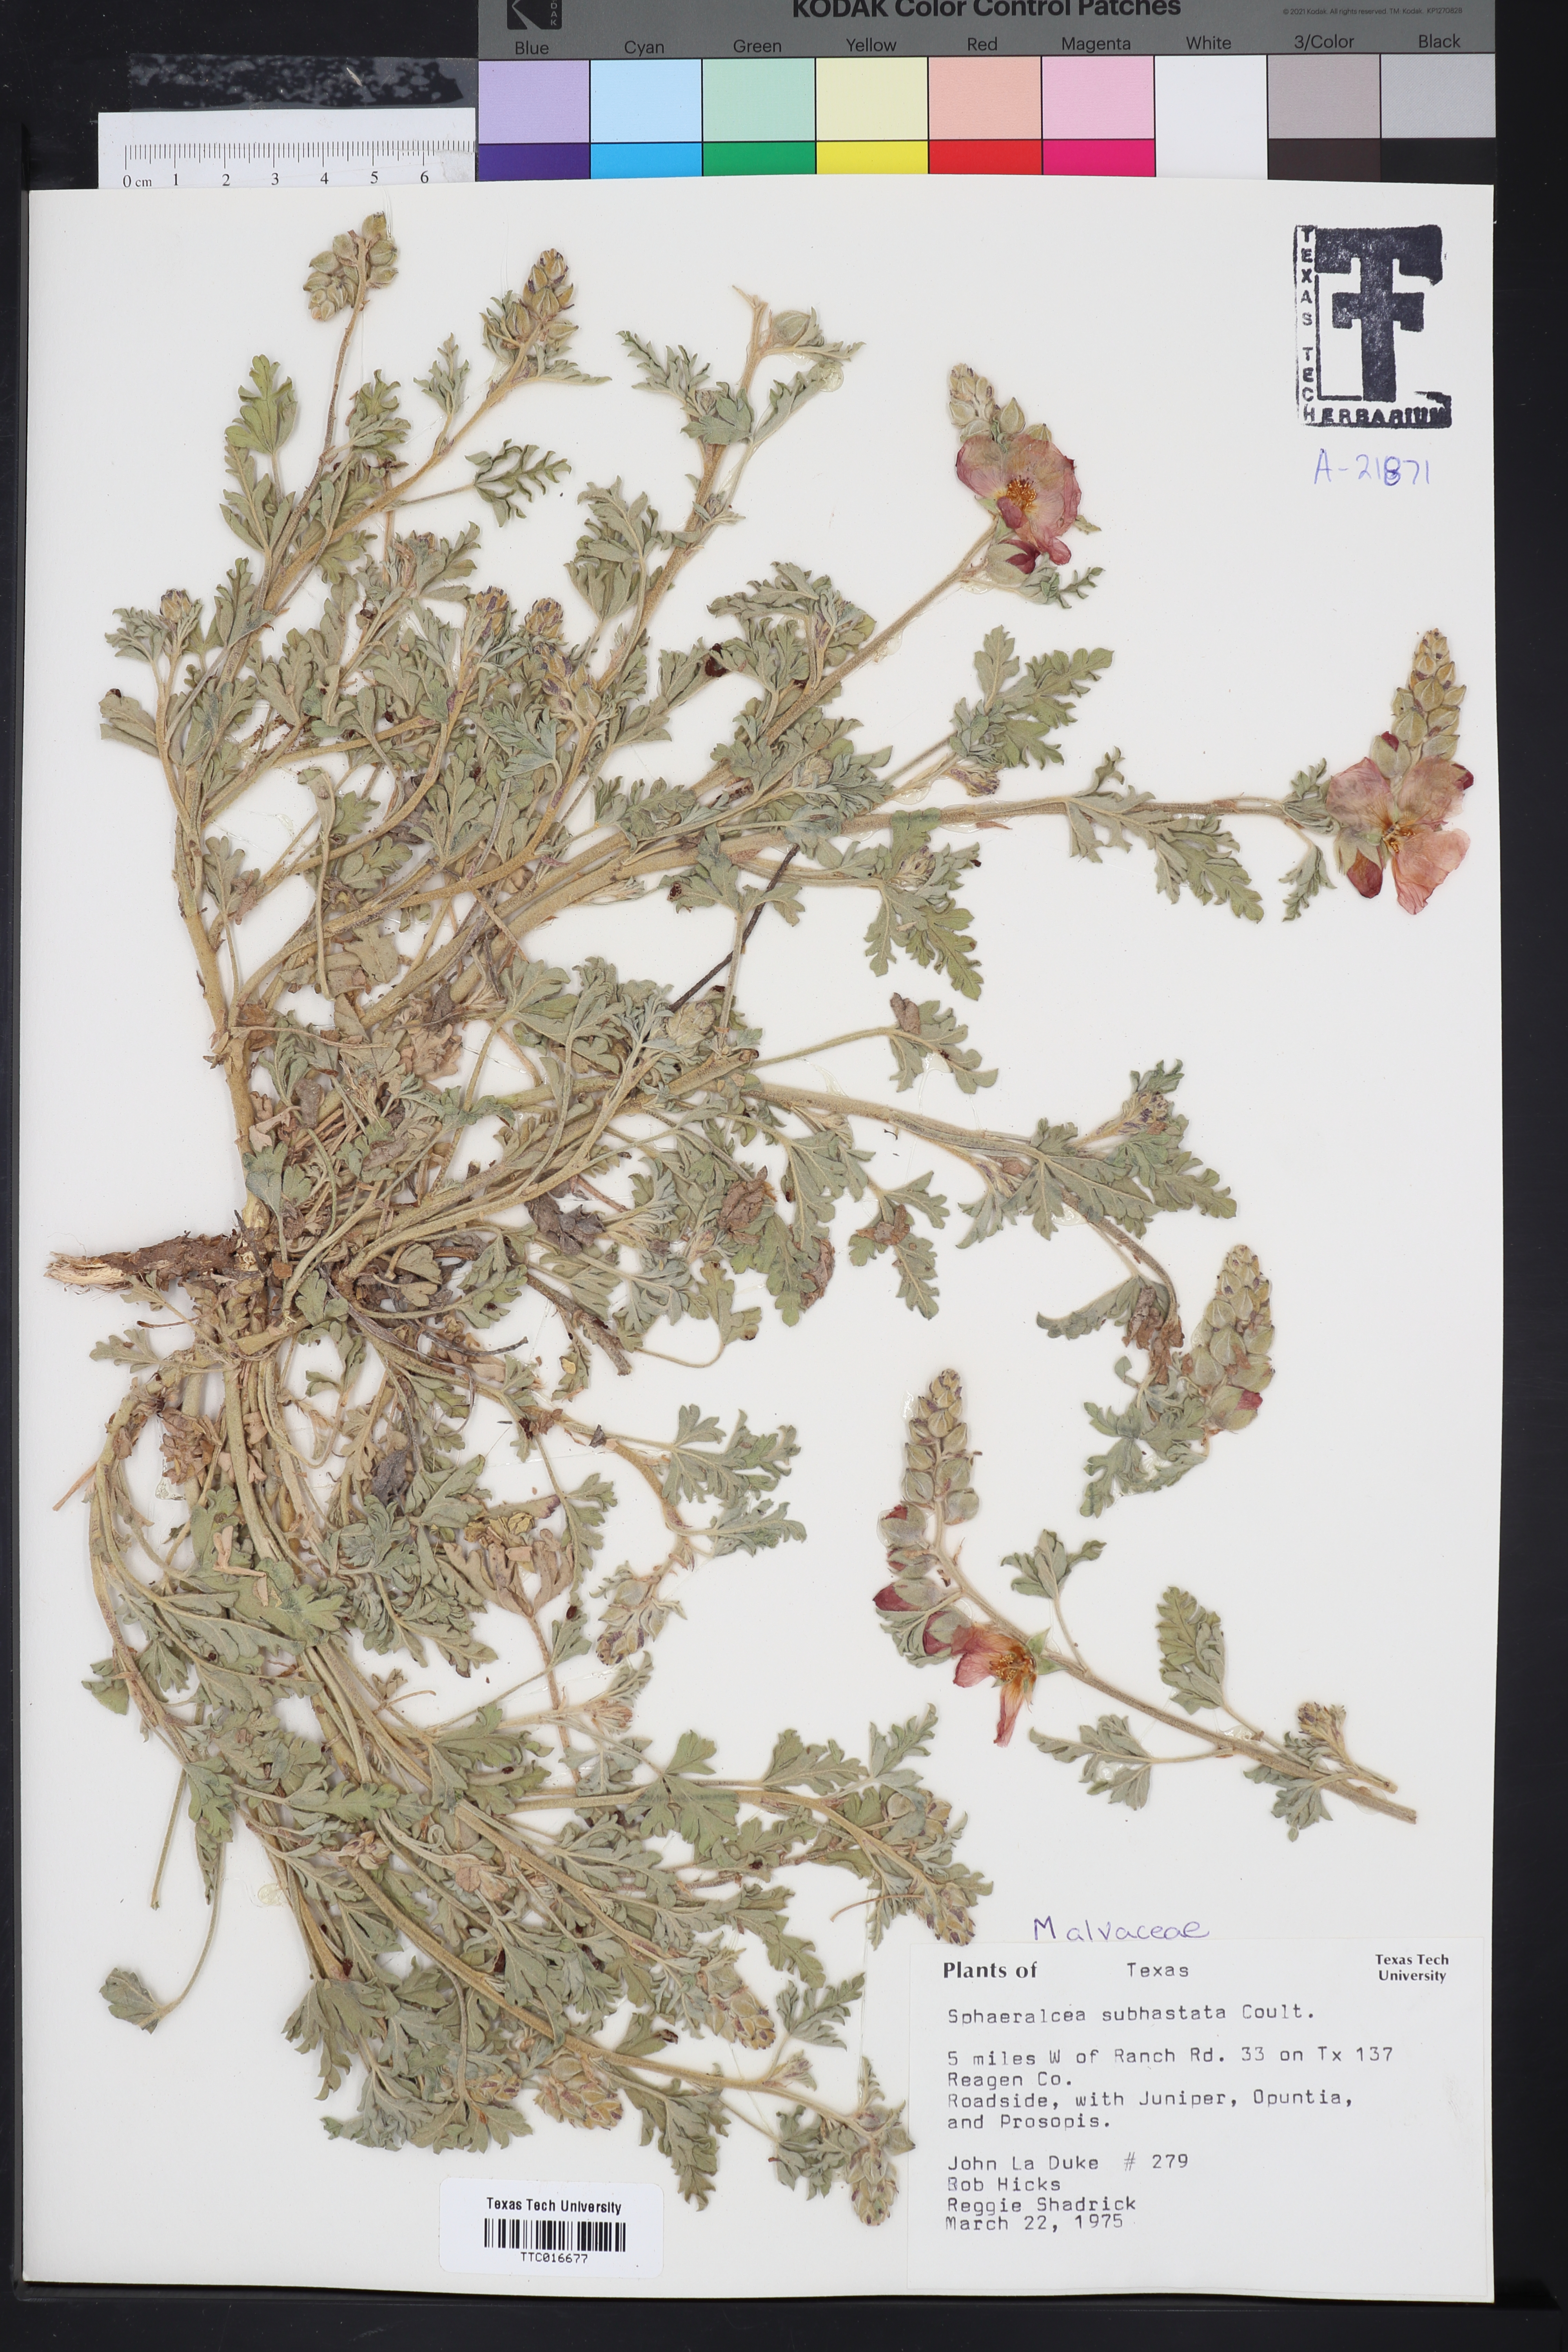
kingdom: Plantae
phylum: Tracheophyta
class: Magnoliopsida
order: Malvales
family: Malvaceae
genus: Sphaeralcea
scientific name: Sphaeralcea hastulata
